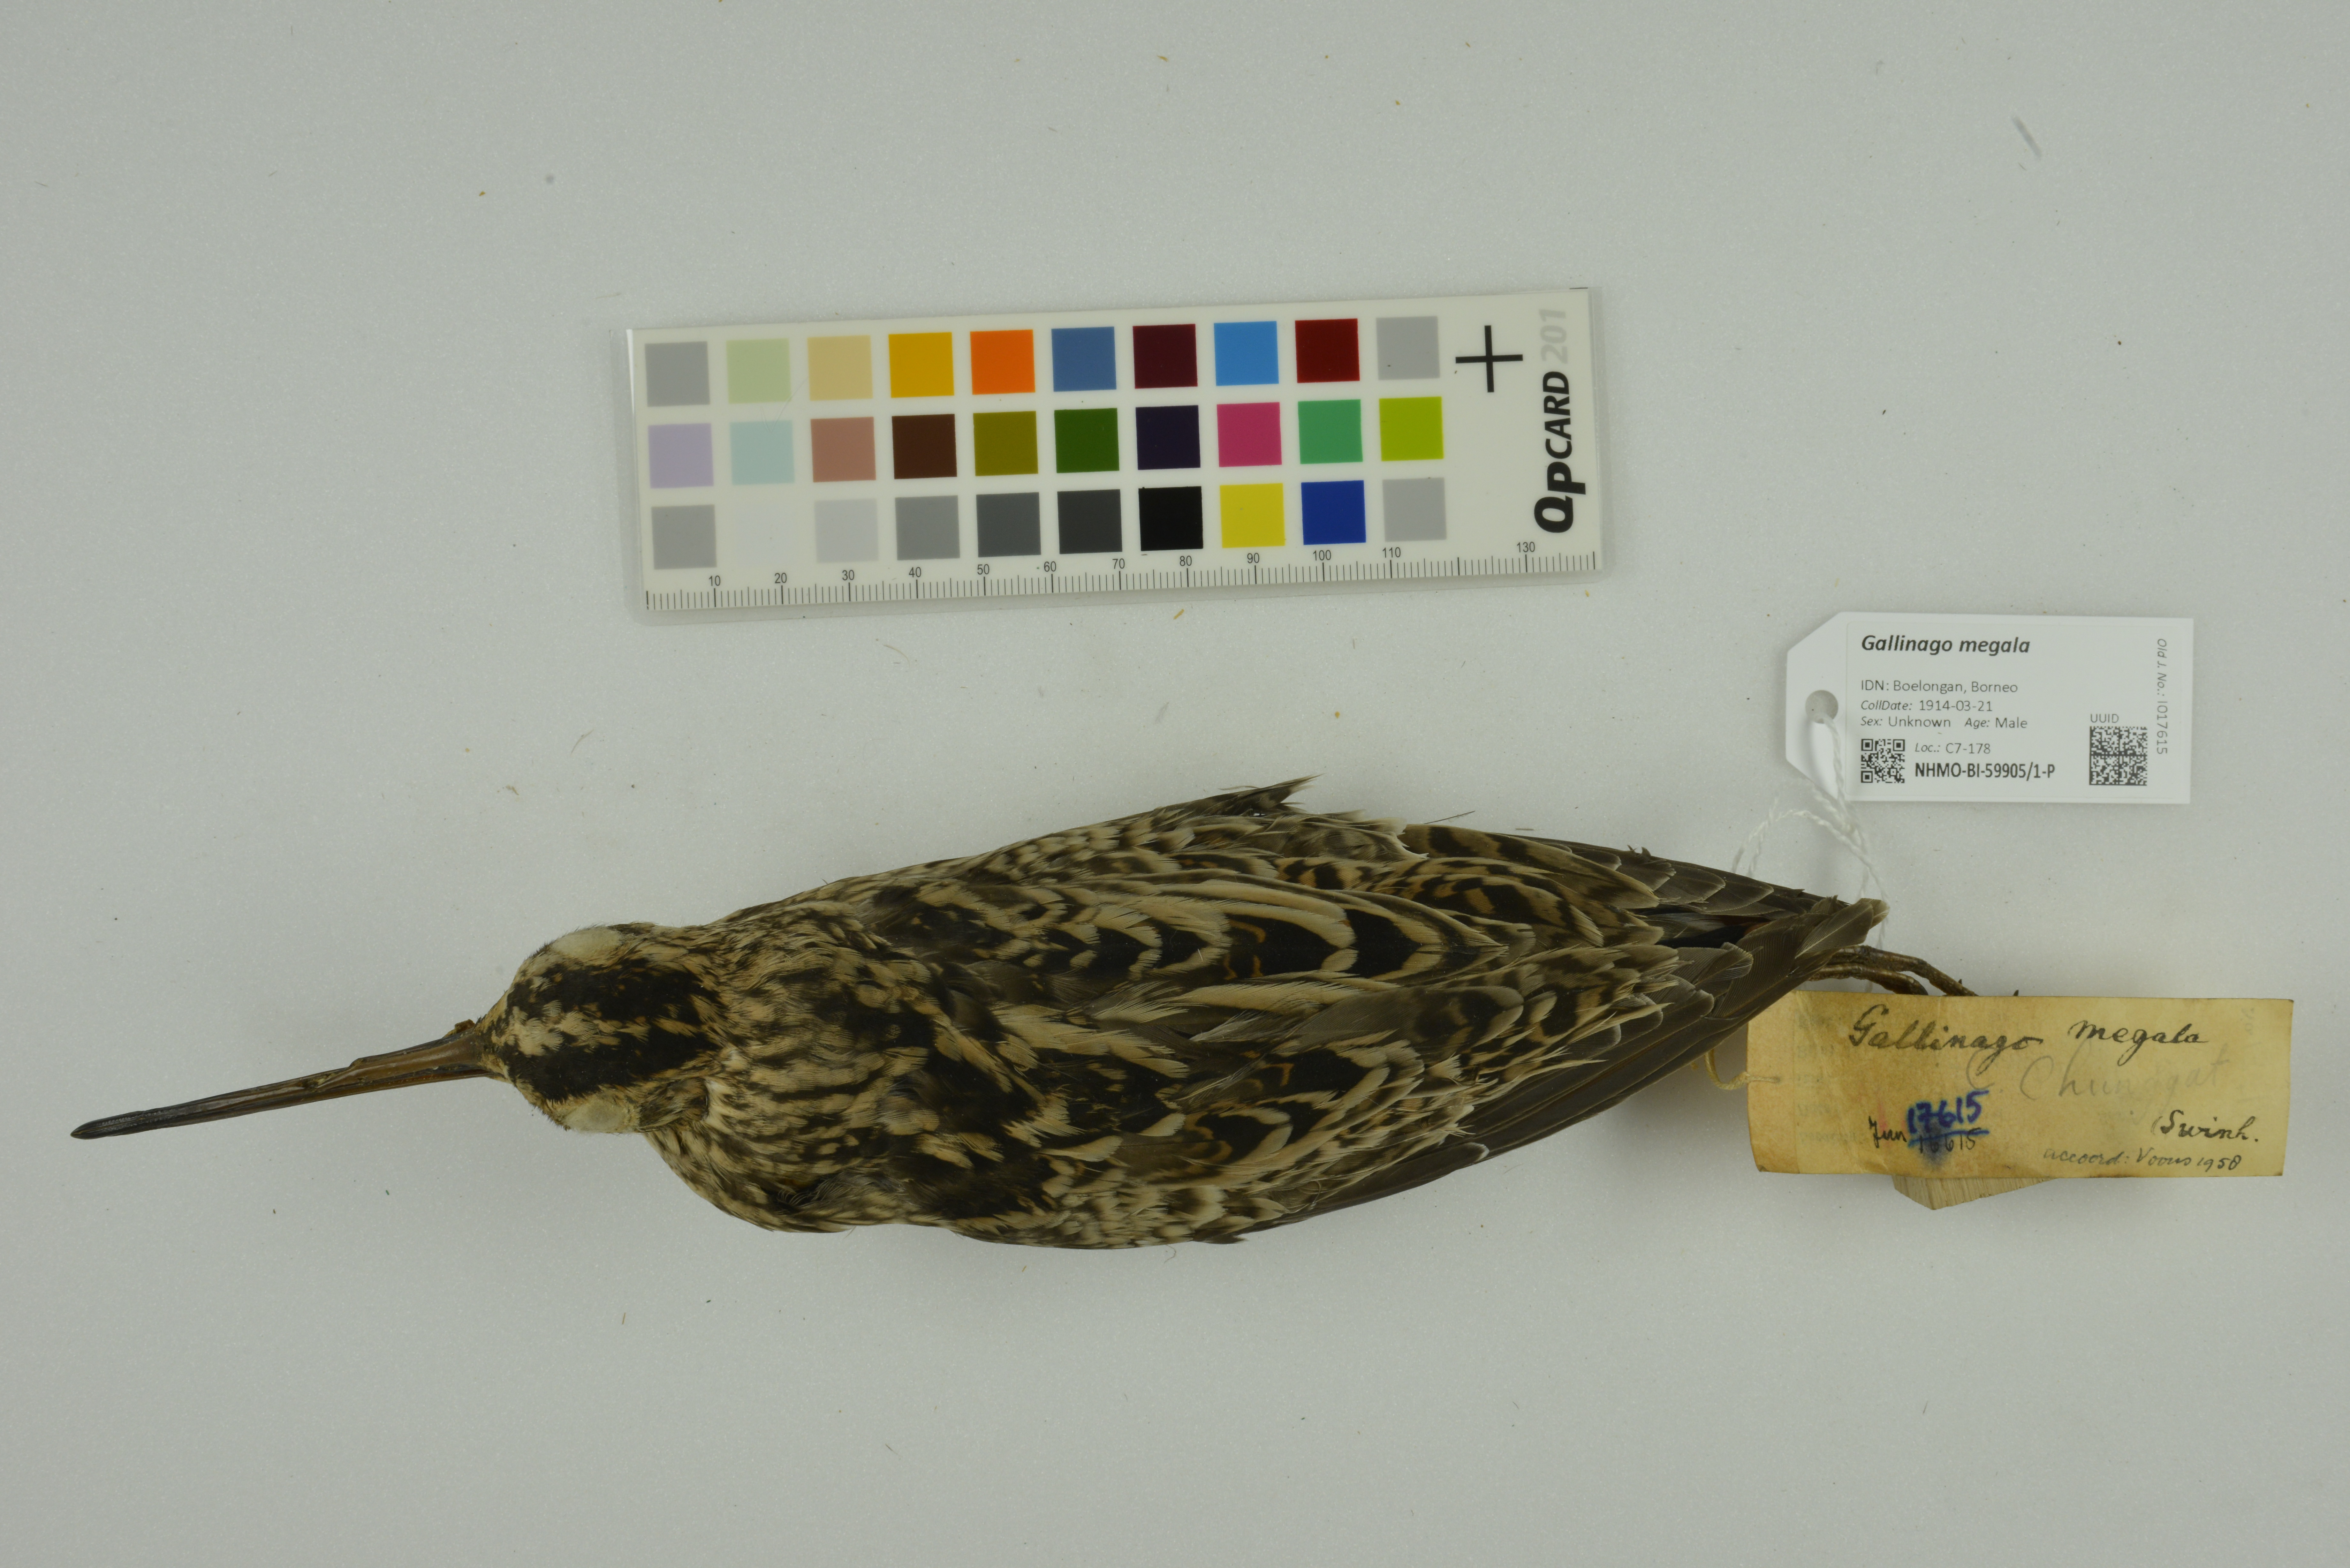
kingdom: Animalia
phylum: Chordata
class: Aves
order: Charadriiformes
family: Scolopacidae
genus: Gallinago
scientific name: Gallinago megala
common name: Swinhoe's snipe
